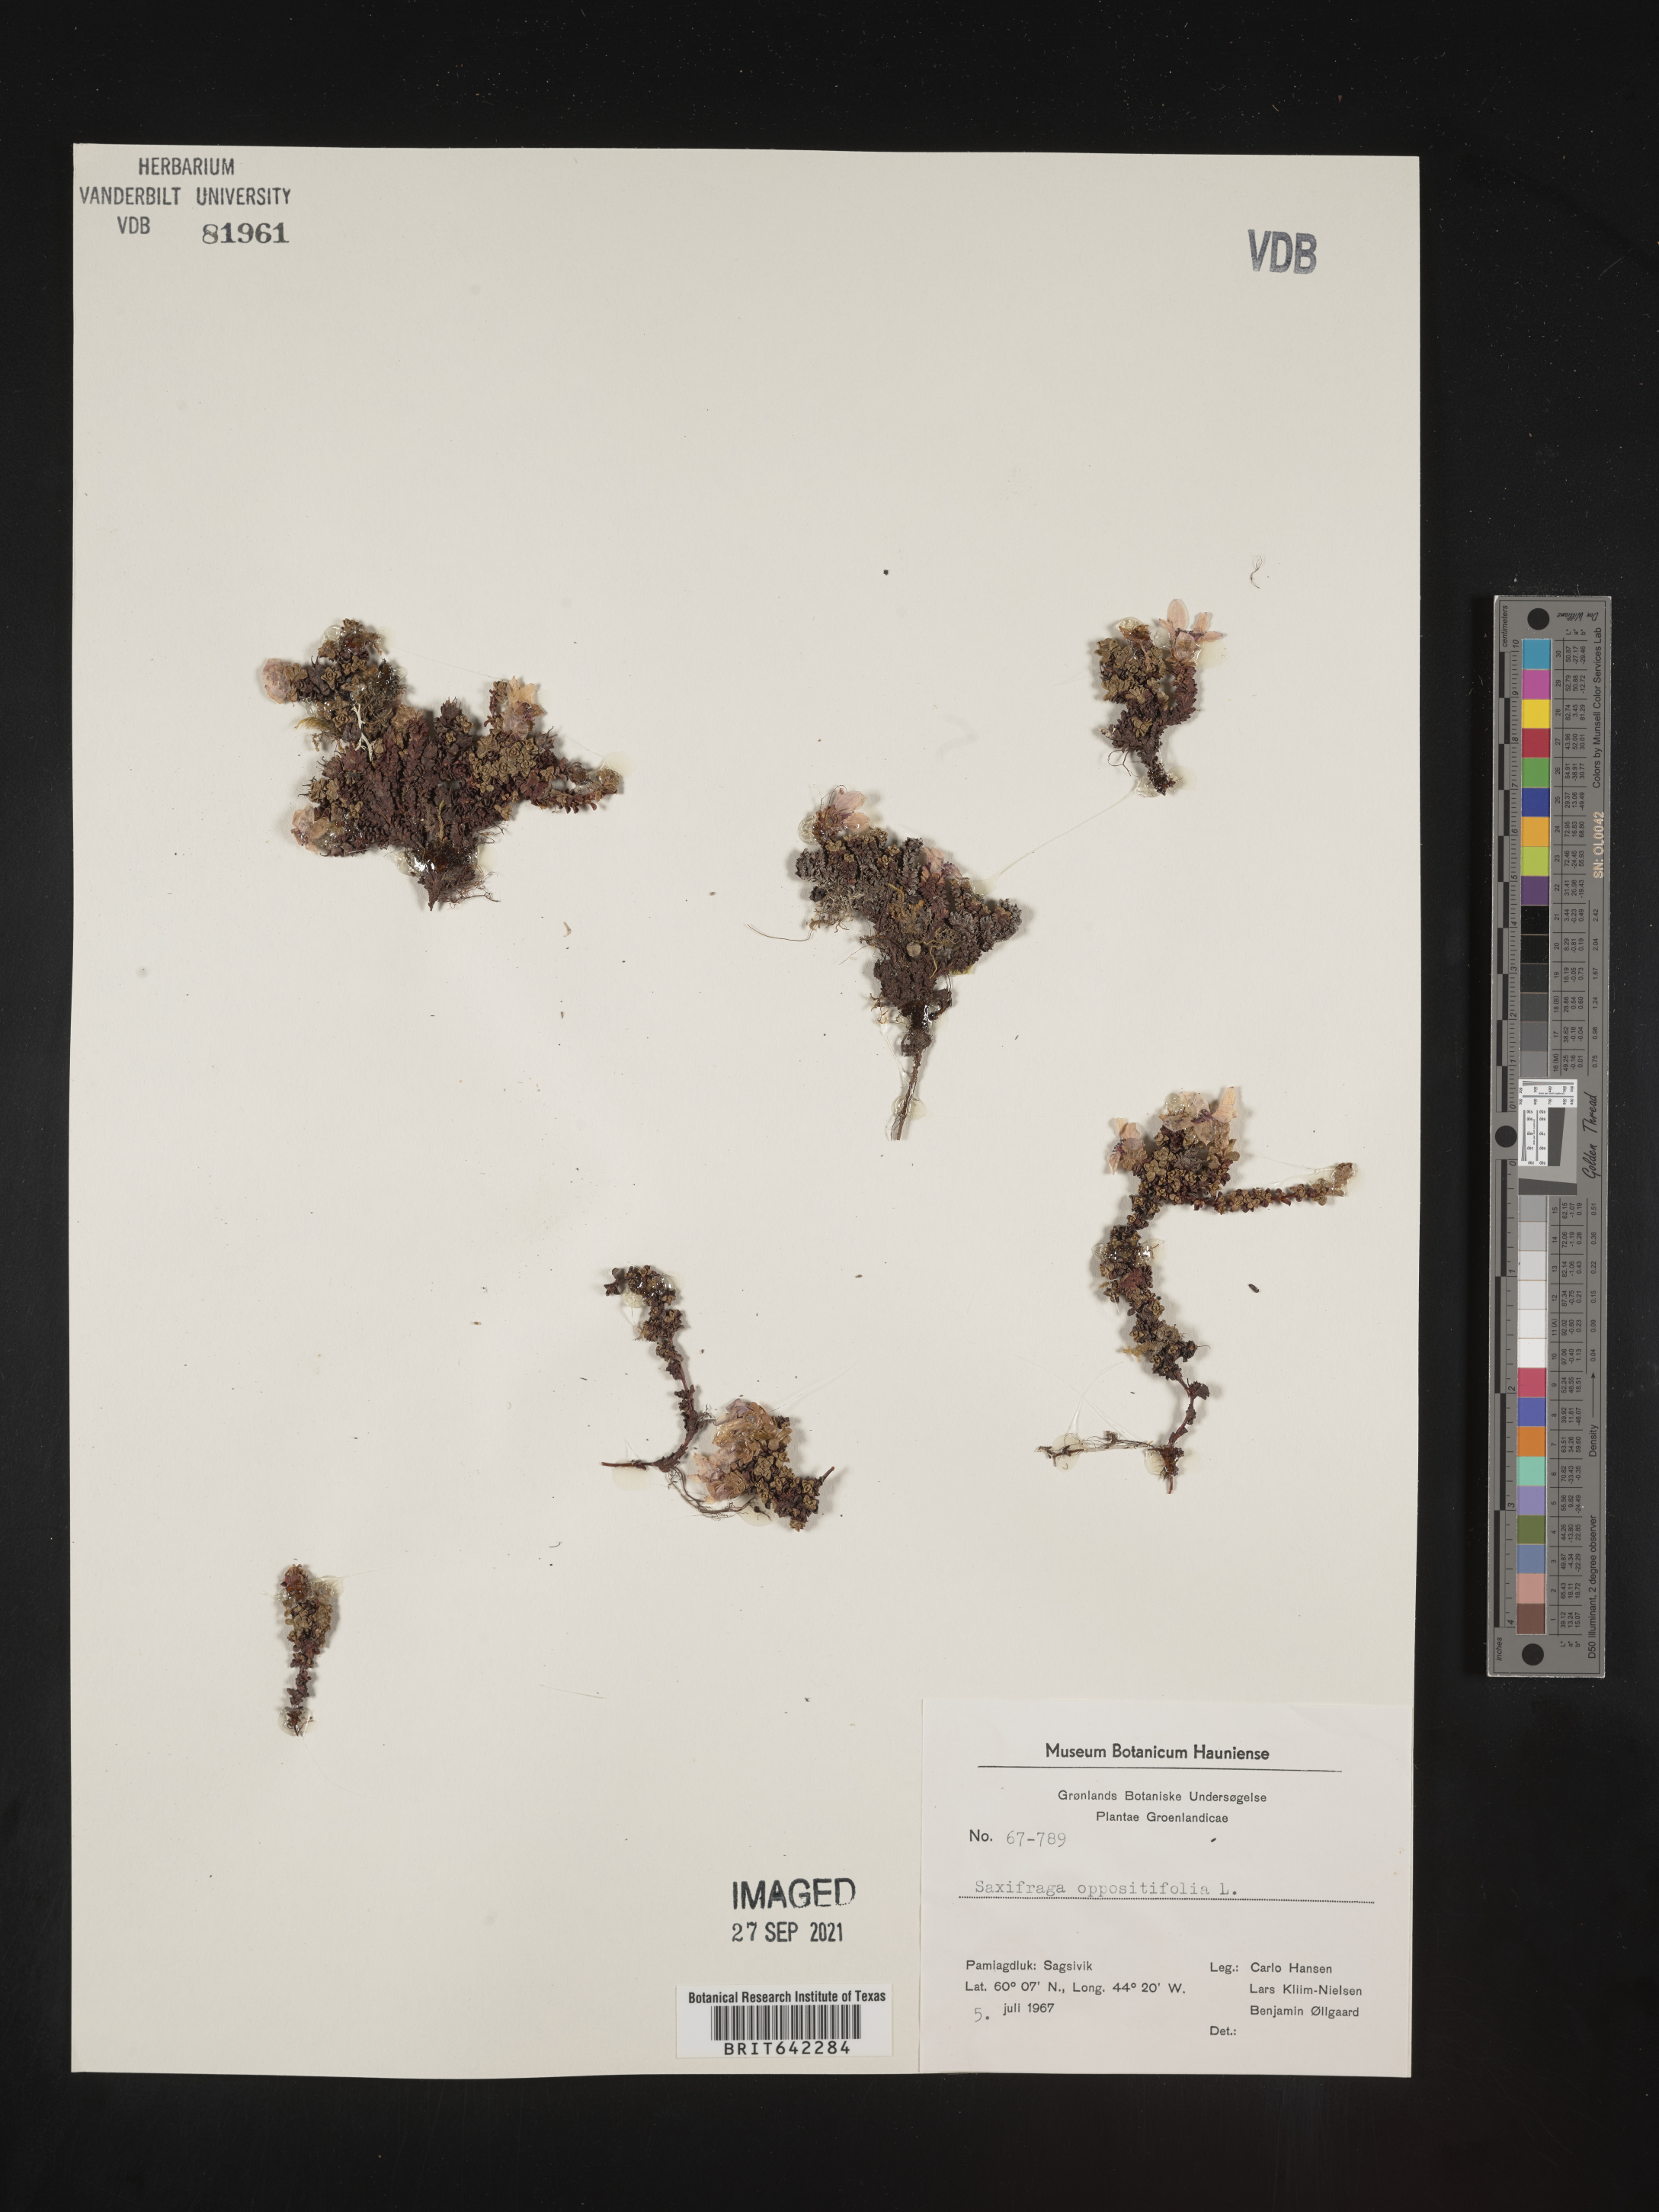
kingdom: Plantae
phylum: Tracheophyta
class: Magnoliopsida
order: Saxifragales
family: Saxifragaceae
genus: Saxifraga
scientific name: Saxifraga
